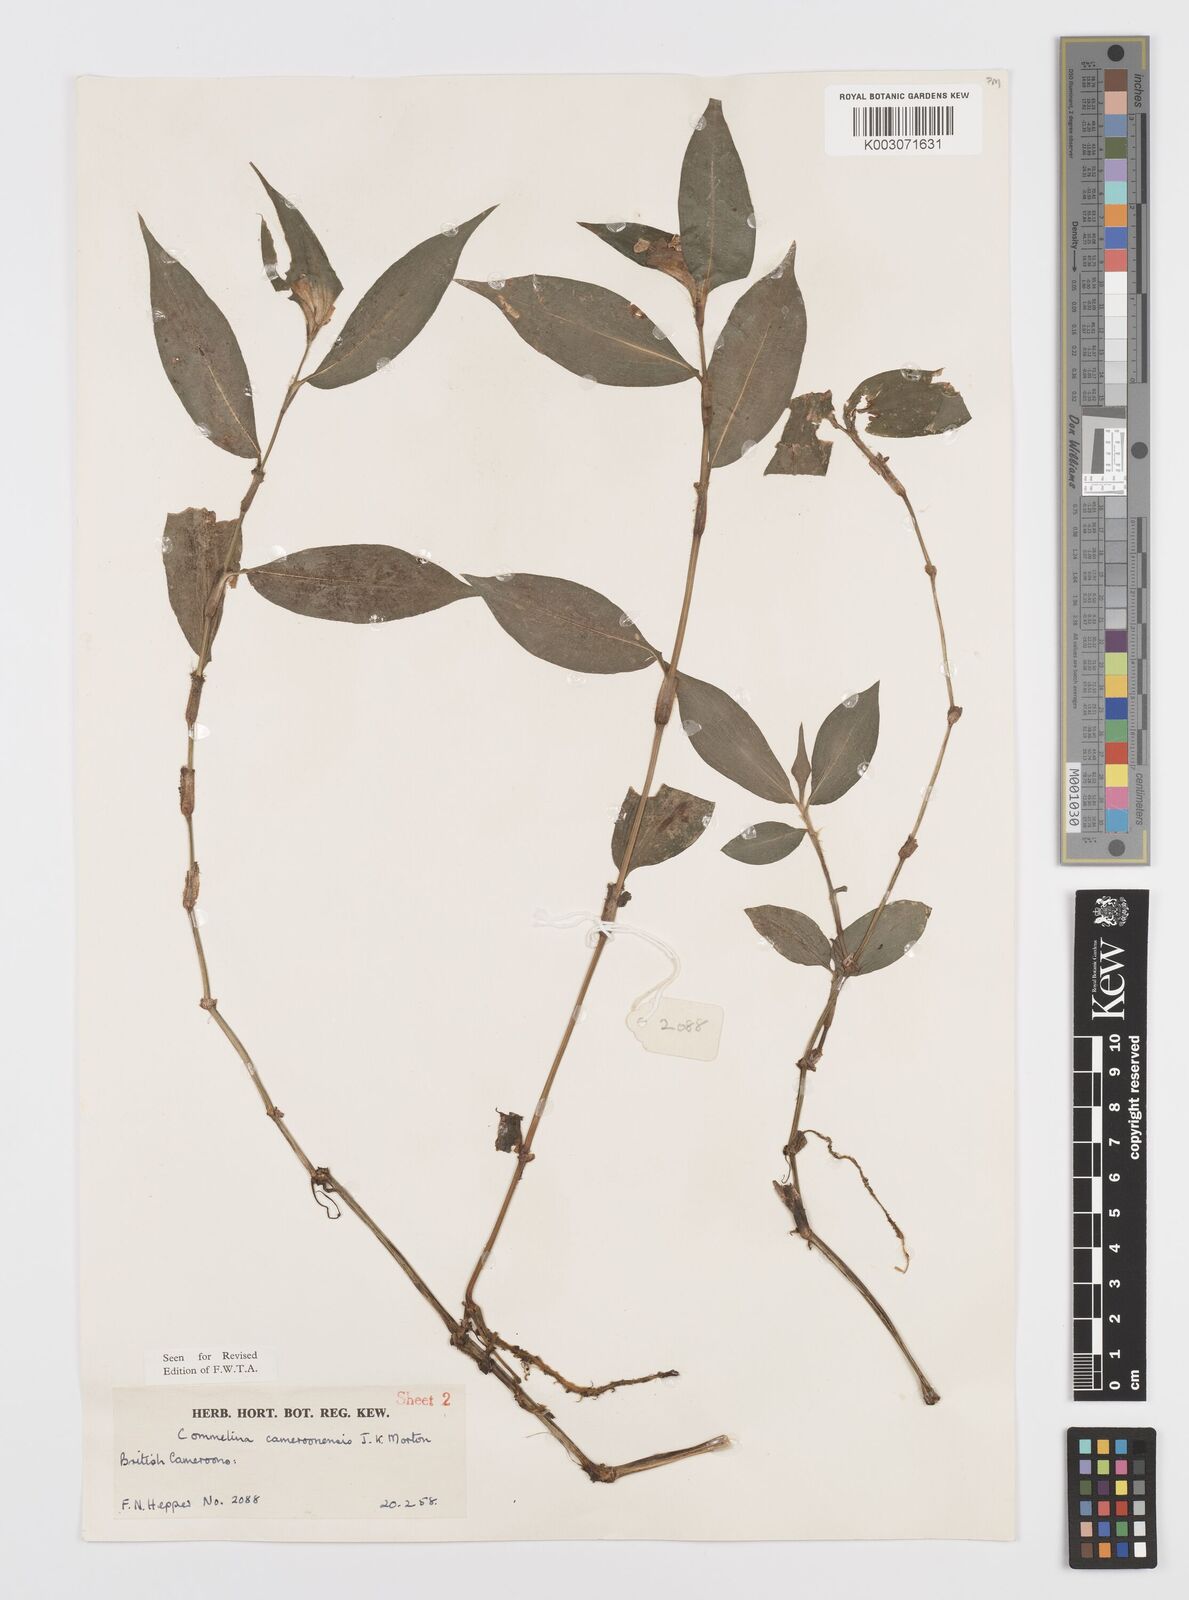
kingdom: Plantae
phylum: Tracheophyta
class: Liliopsida
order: Commelinales
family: Commelinaceae
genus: Commelina
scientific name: Commelina cameroonensis
